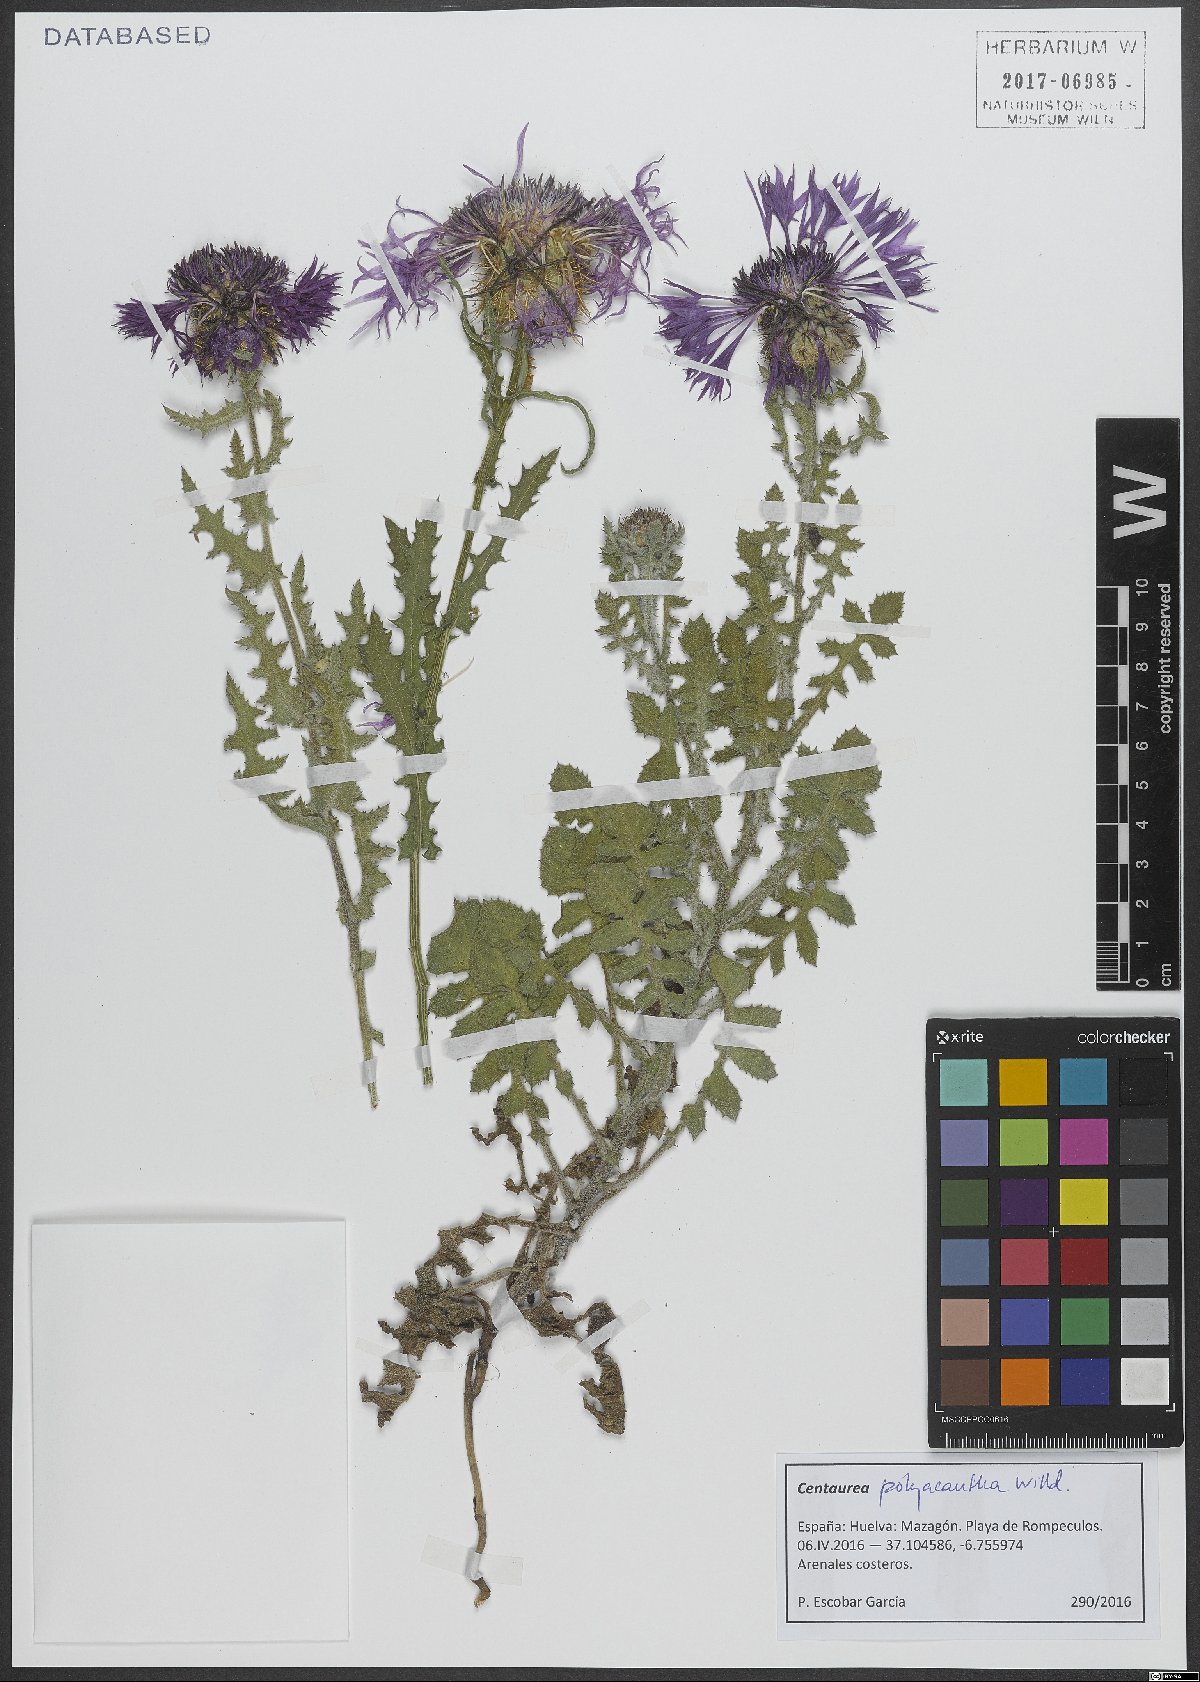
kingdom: Plantae
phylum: Tracheophyta
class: Magnoliopsida
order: Asterales
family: Asteraceae
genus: Centaurea
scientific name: Centaurea polyacantha
